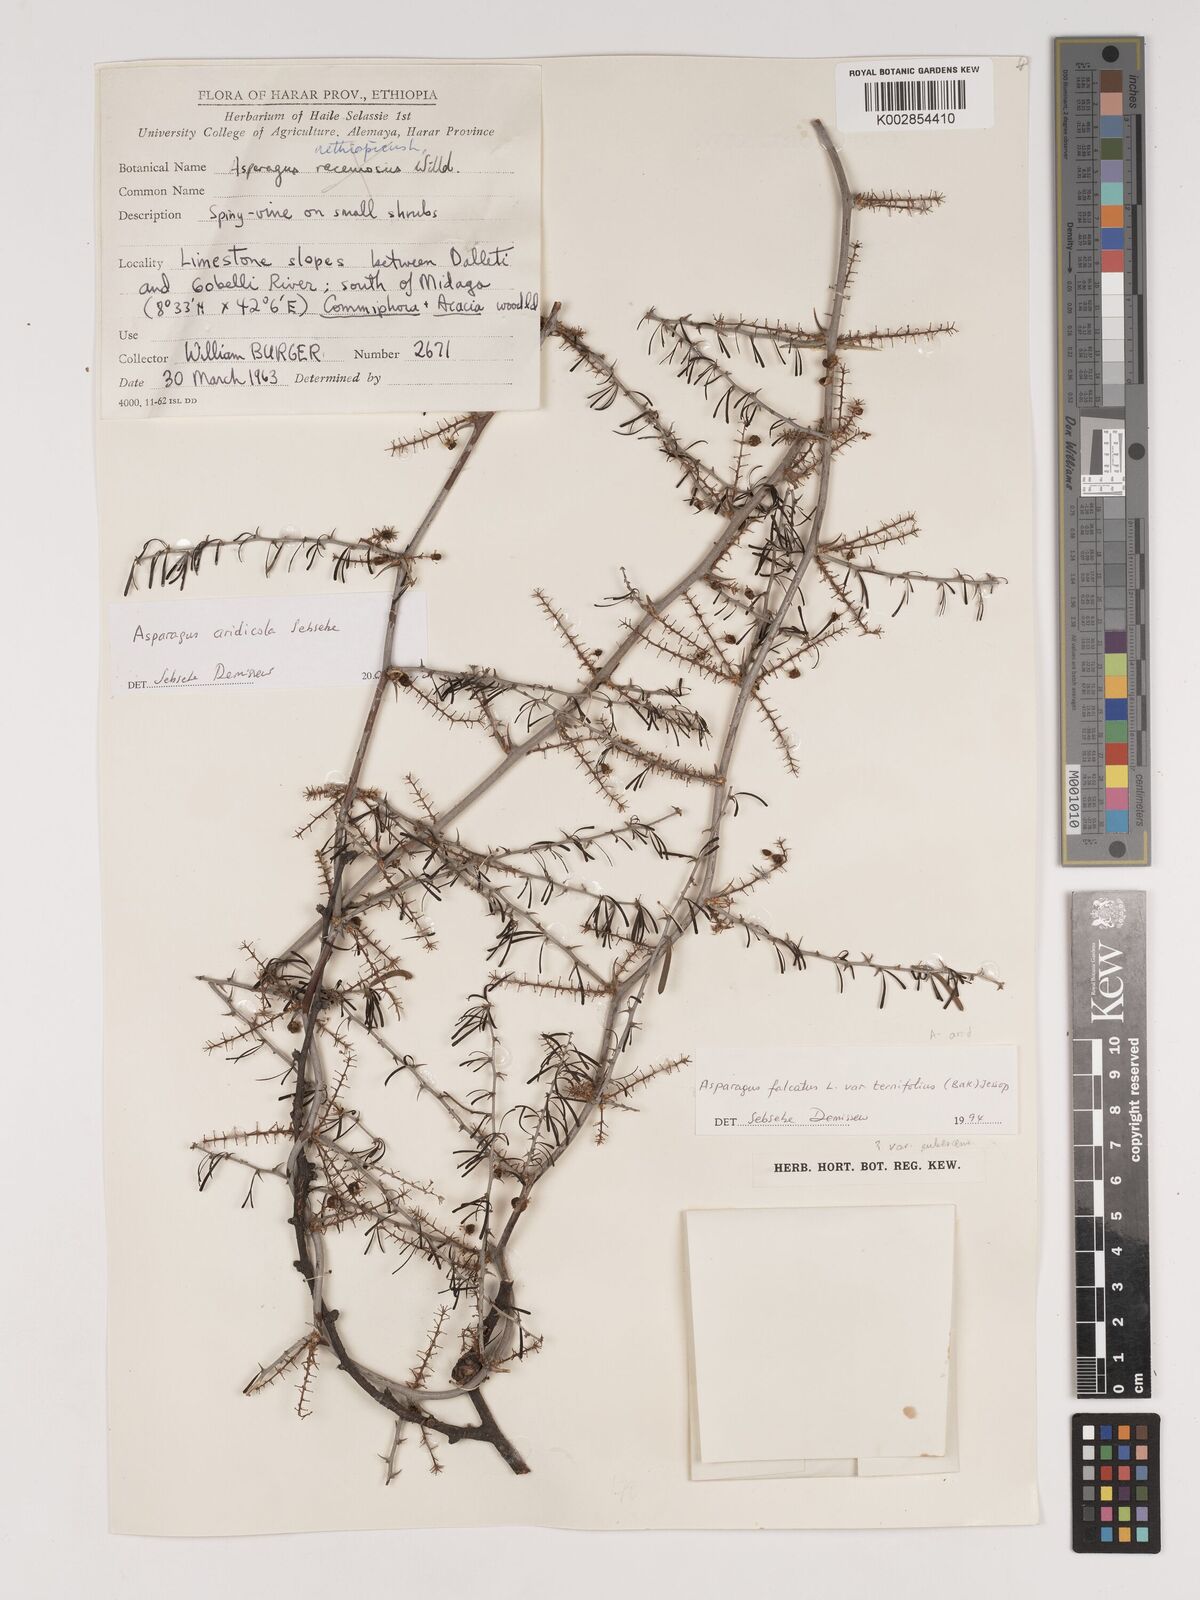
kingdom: Plantae
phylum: Tracheophyta
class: Liliopsida
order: Asparagales
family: Asparagaceae
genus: Asparagus
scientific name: Asparagus aridicola
